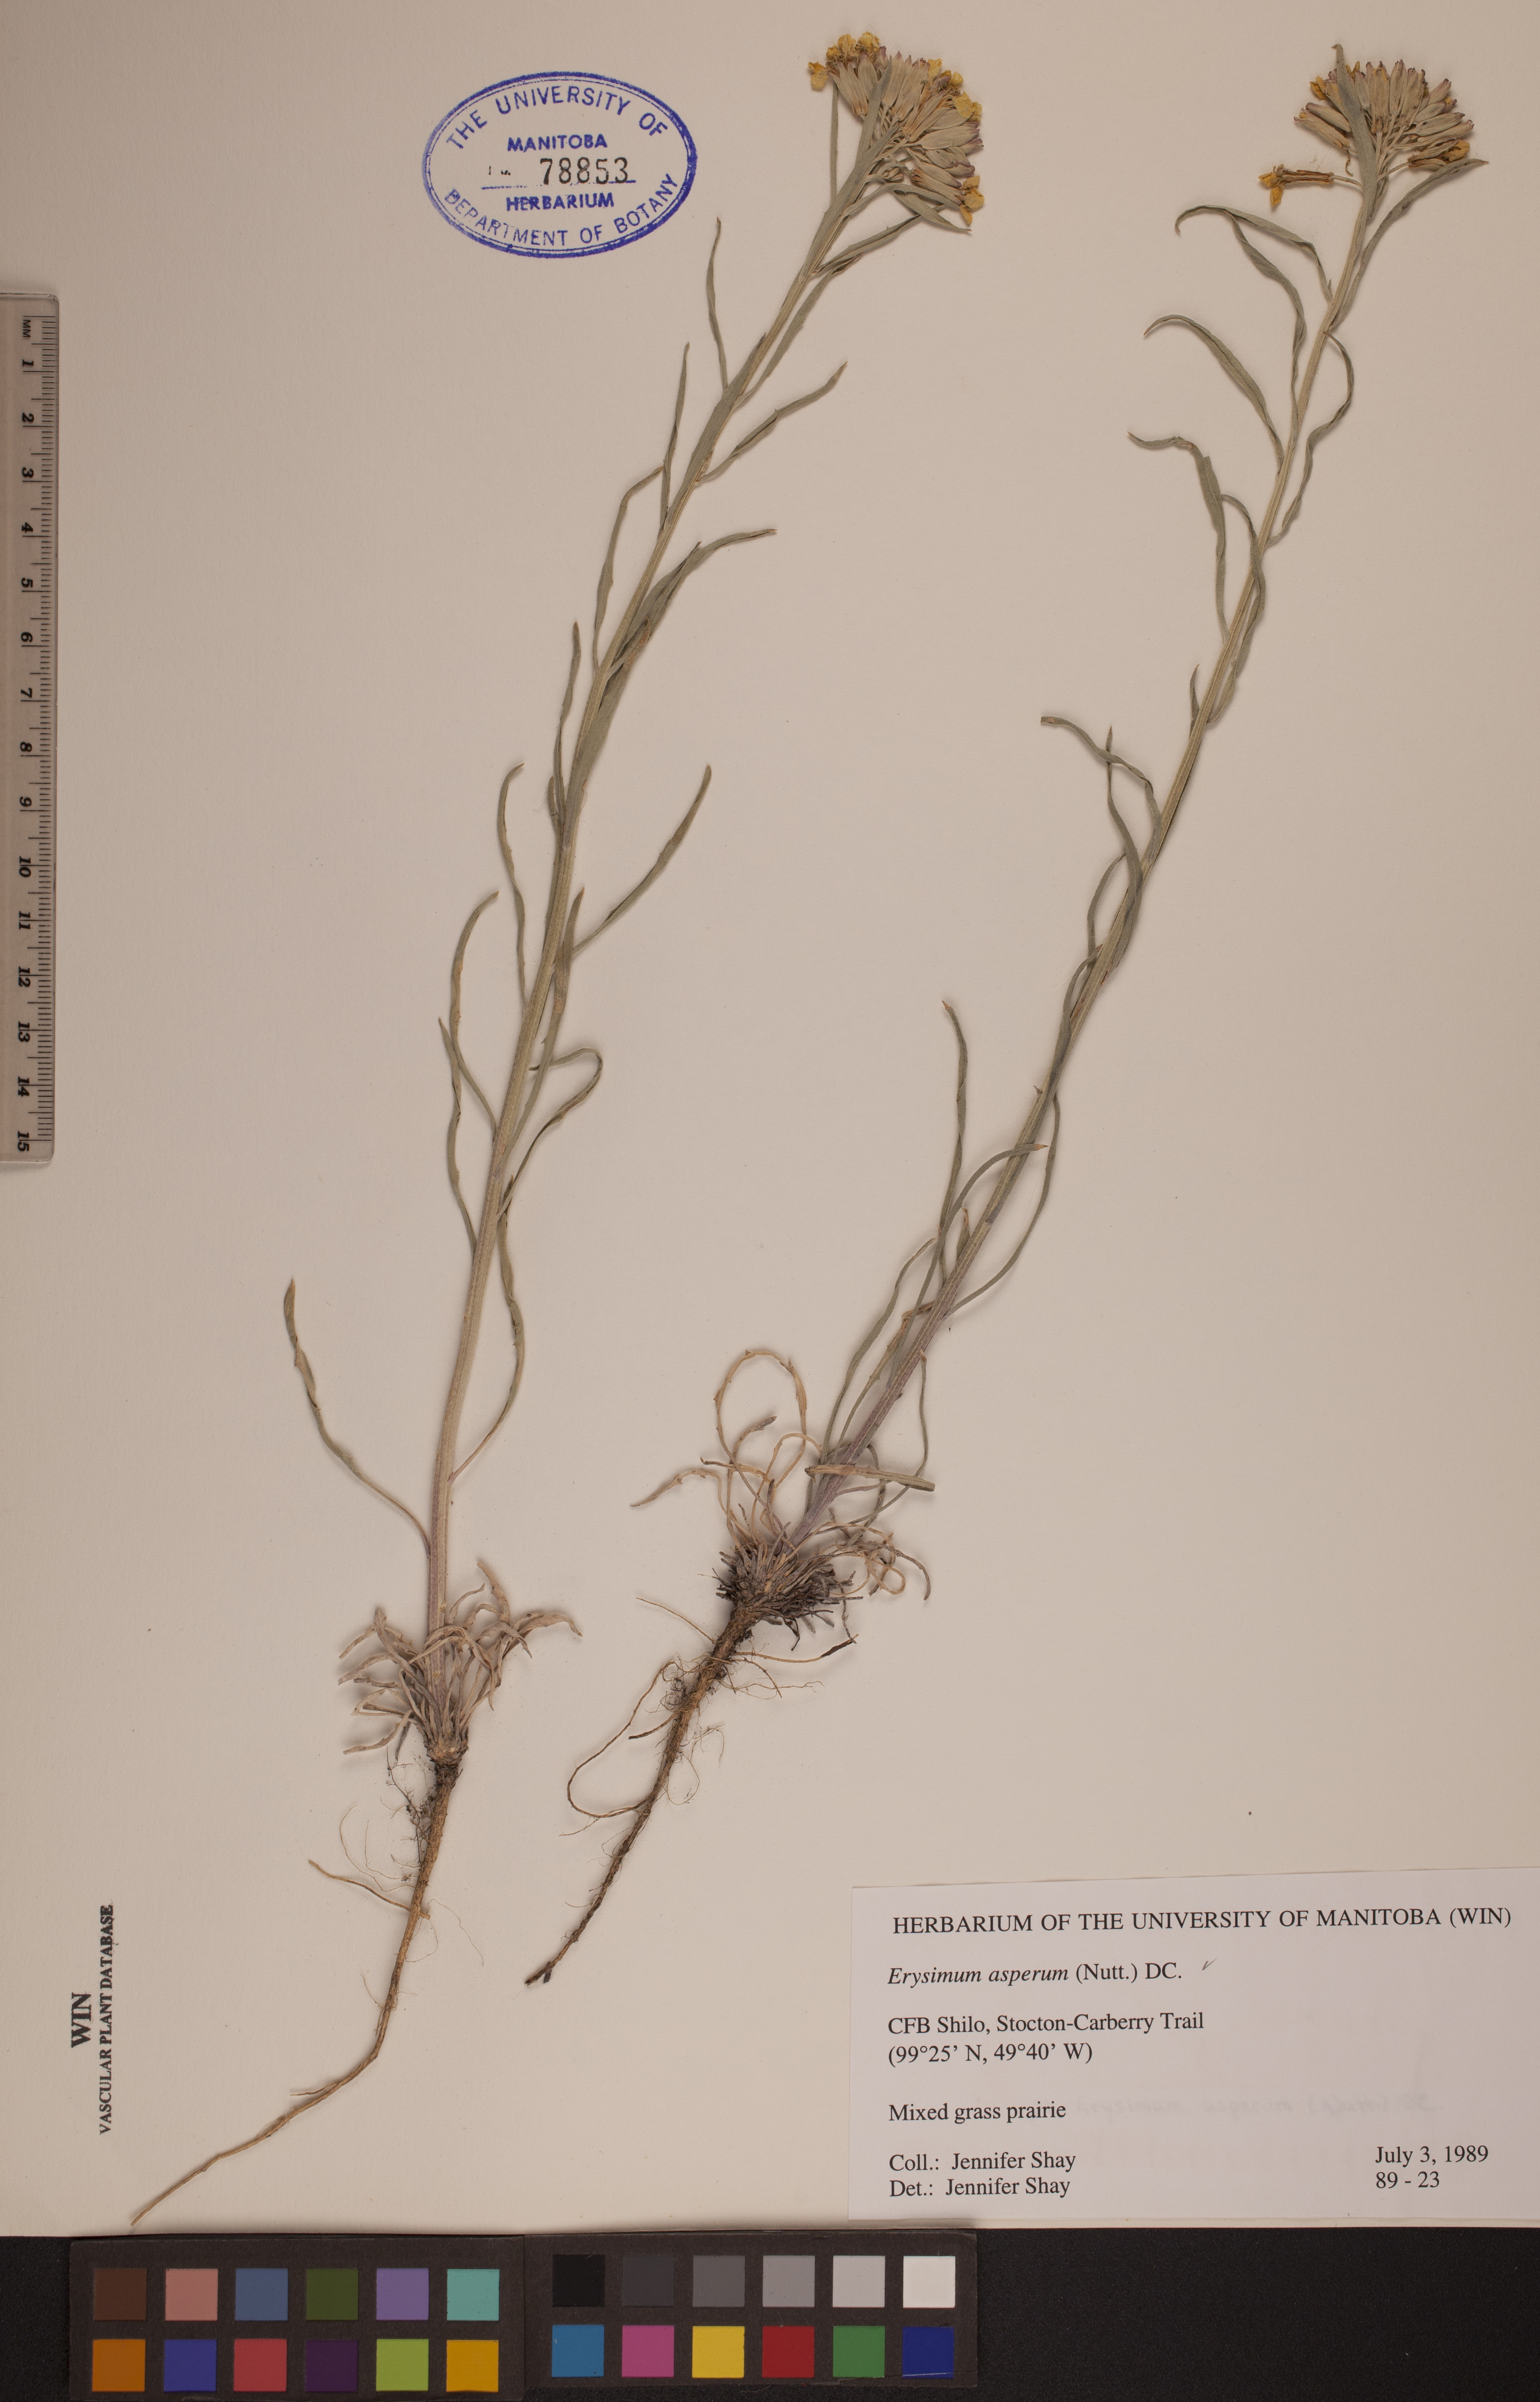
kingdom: Plantae
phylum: Tracheophyta
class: Magnoliopsida
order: Brassicales
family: Brassicaceae
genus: Erysimum
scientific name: Erysimum asperum
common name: Western wallflower
